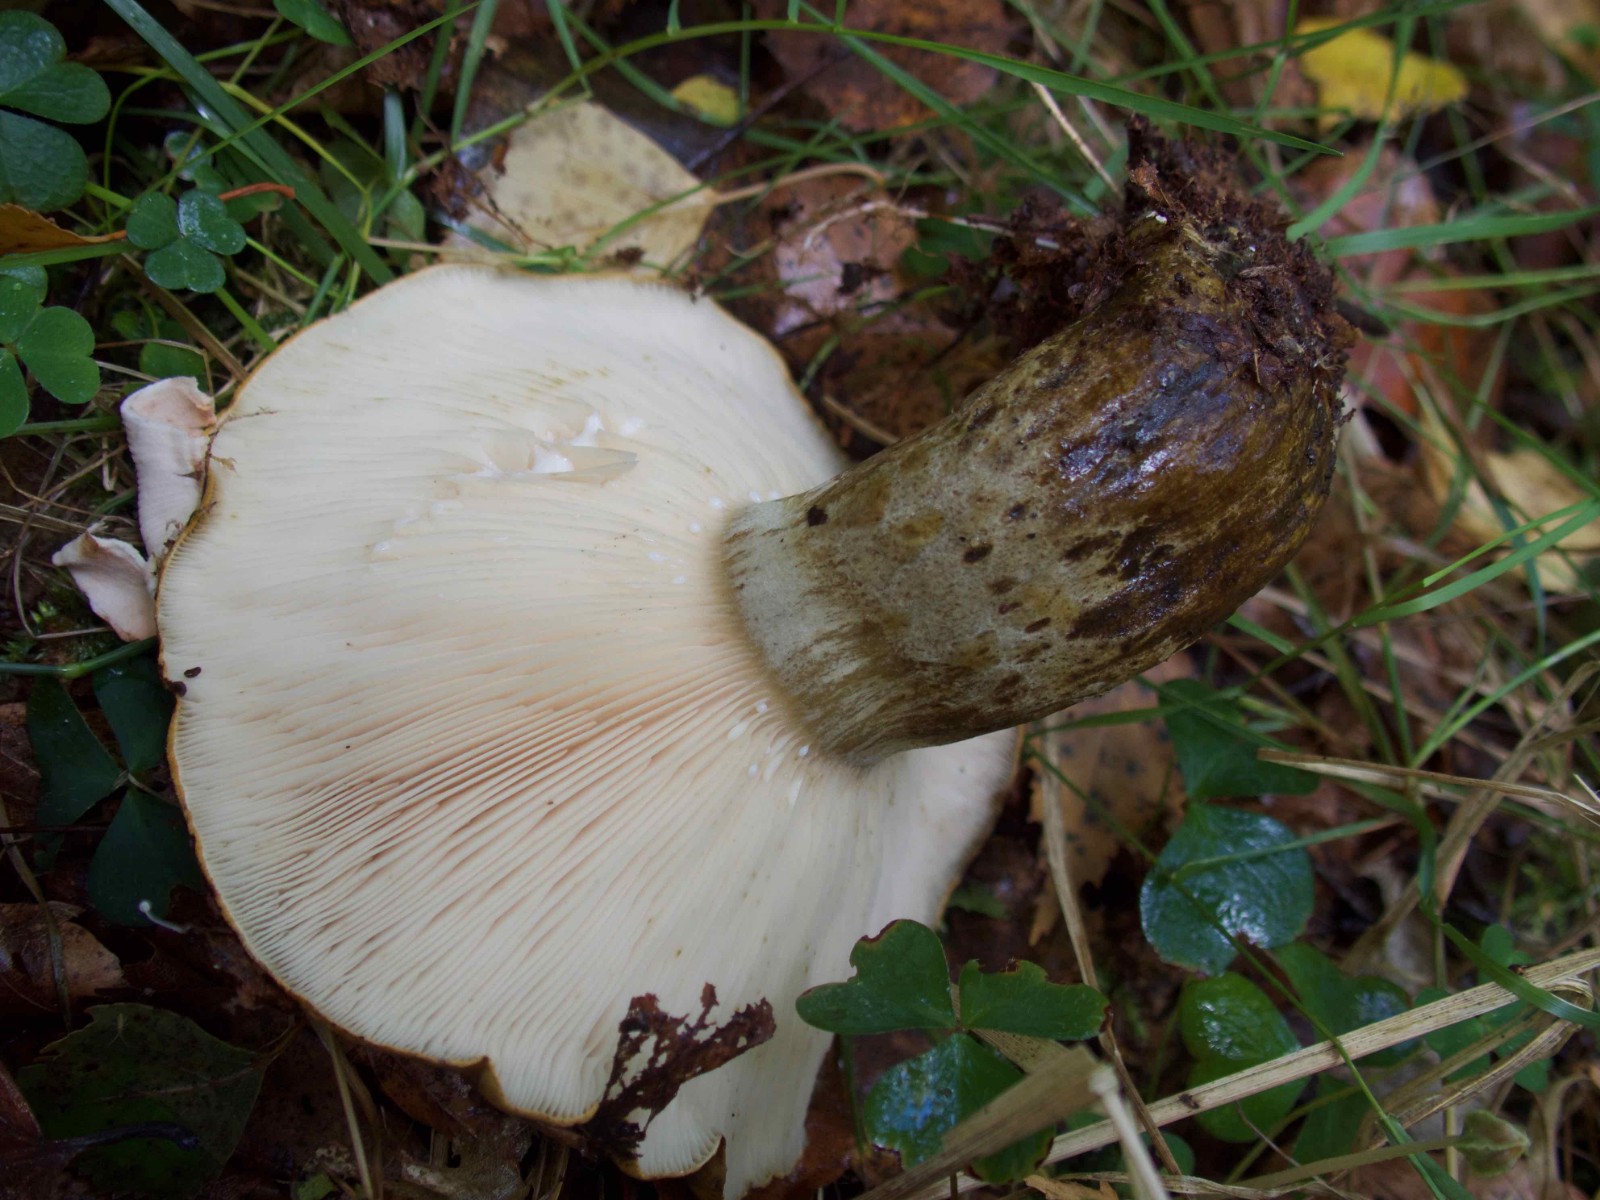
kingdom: Fungi
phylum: Basidiomycota
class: Agaricomycetes
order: Russulales
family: Russulaceae
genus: Lactarius
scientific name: Lactarius necator
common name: manddraber-mælkehat
